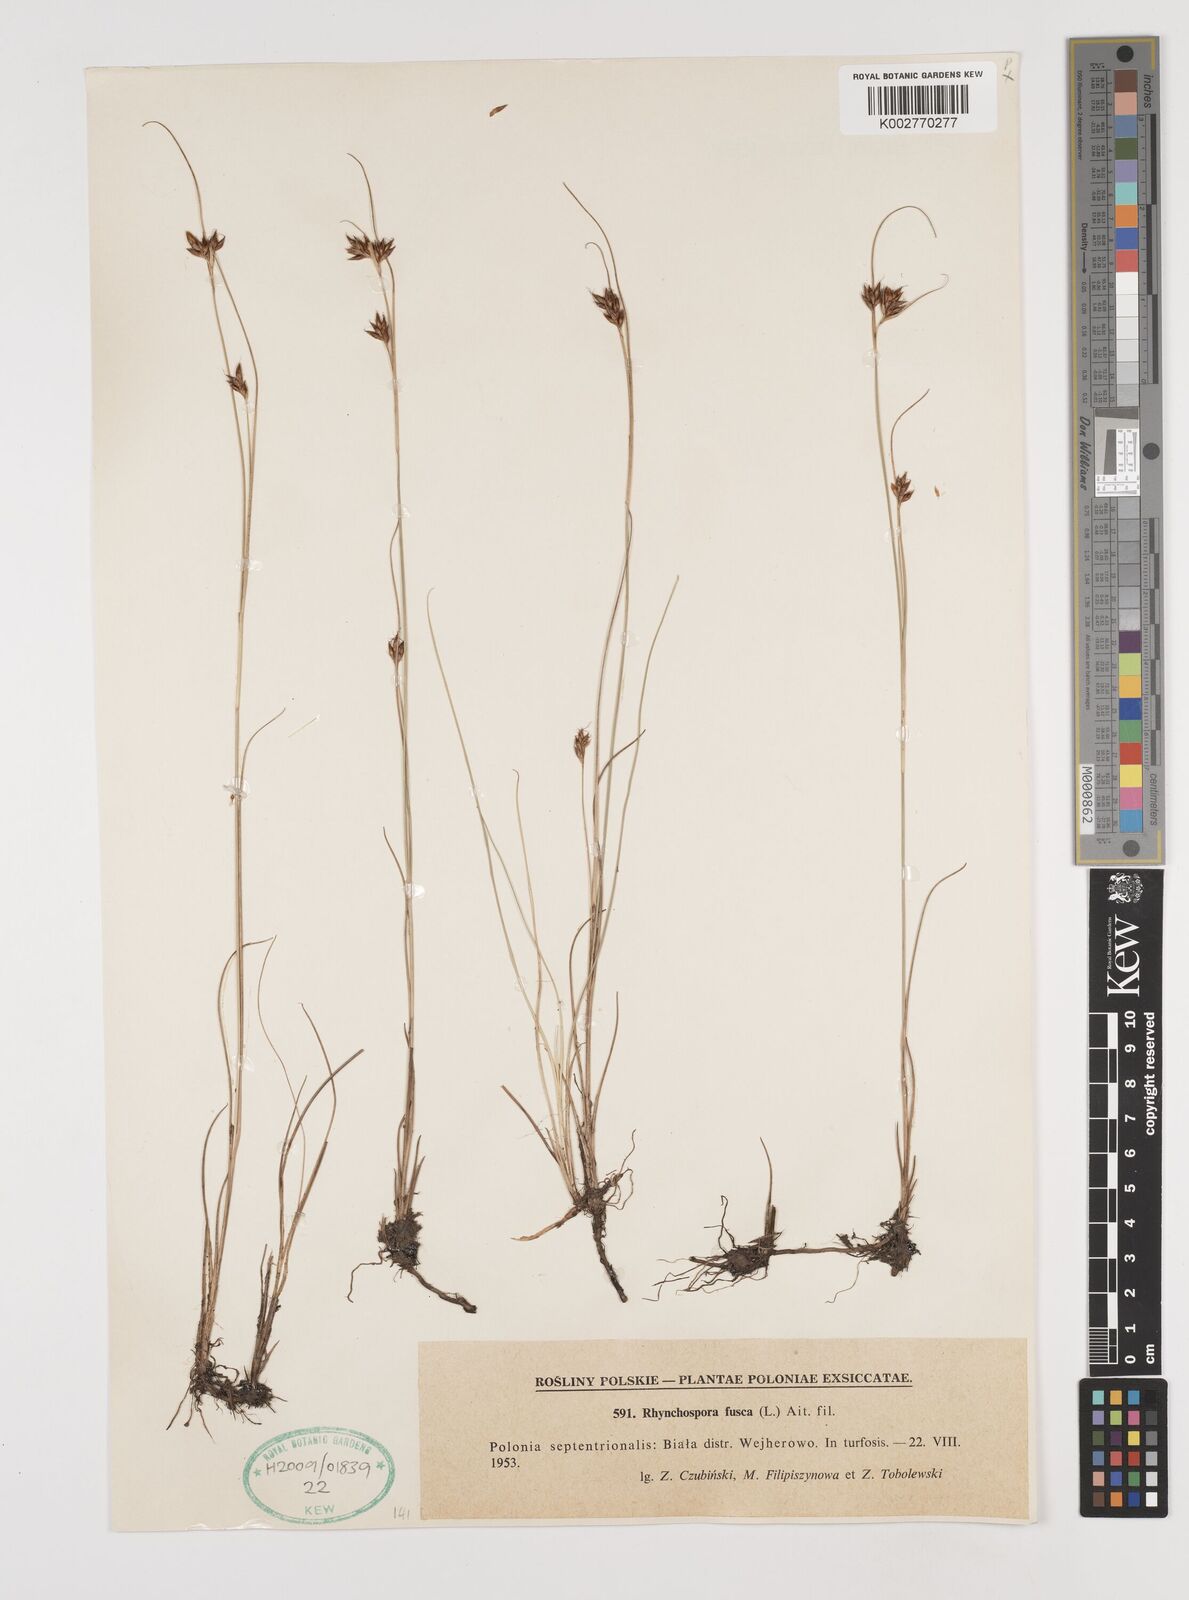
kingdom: Plantae
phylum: Tracheophyta
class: Liliopsida
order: Poales
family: Cyperaceae
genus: Rhynchospora
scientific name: Rhynchospora fusca
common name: Brown beak-sedge
